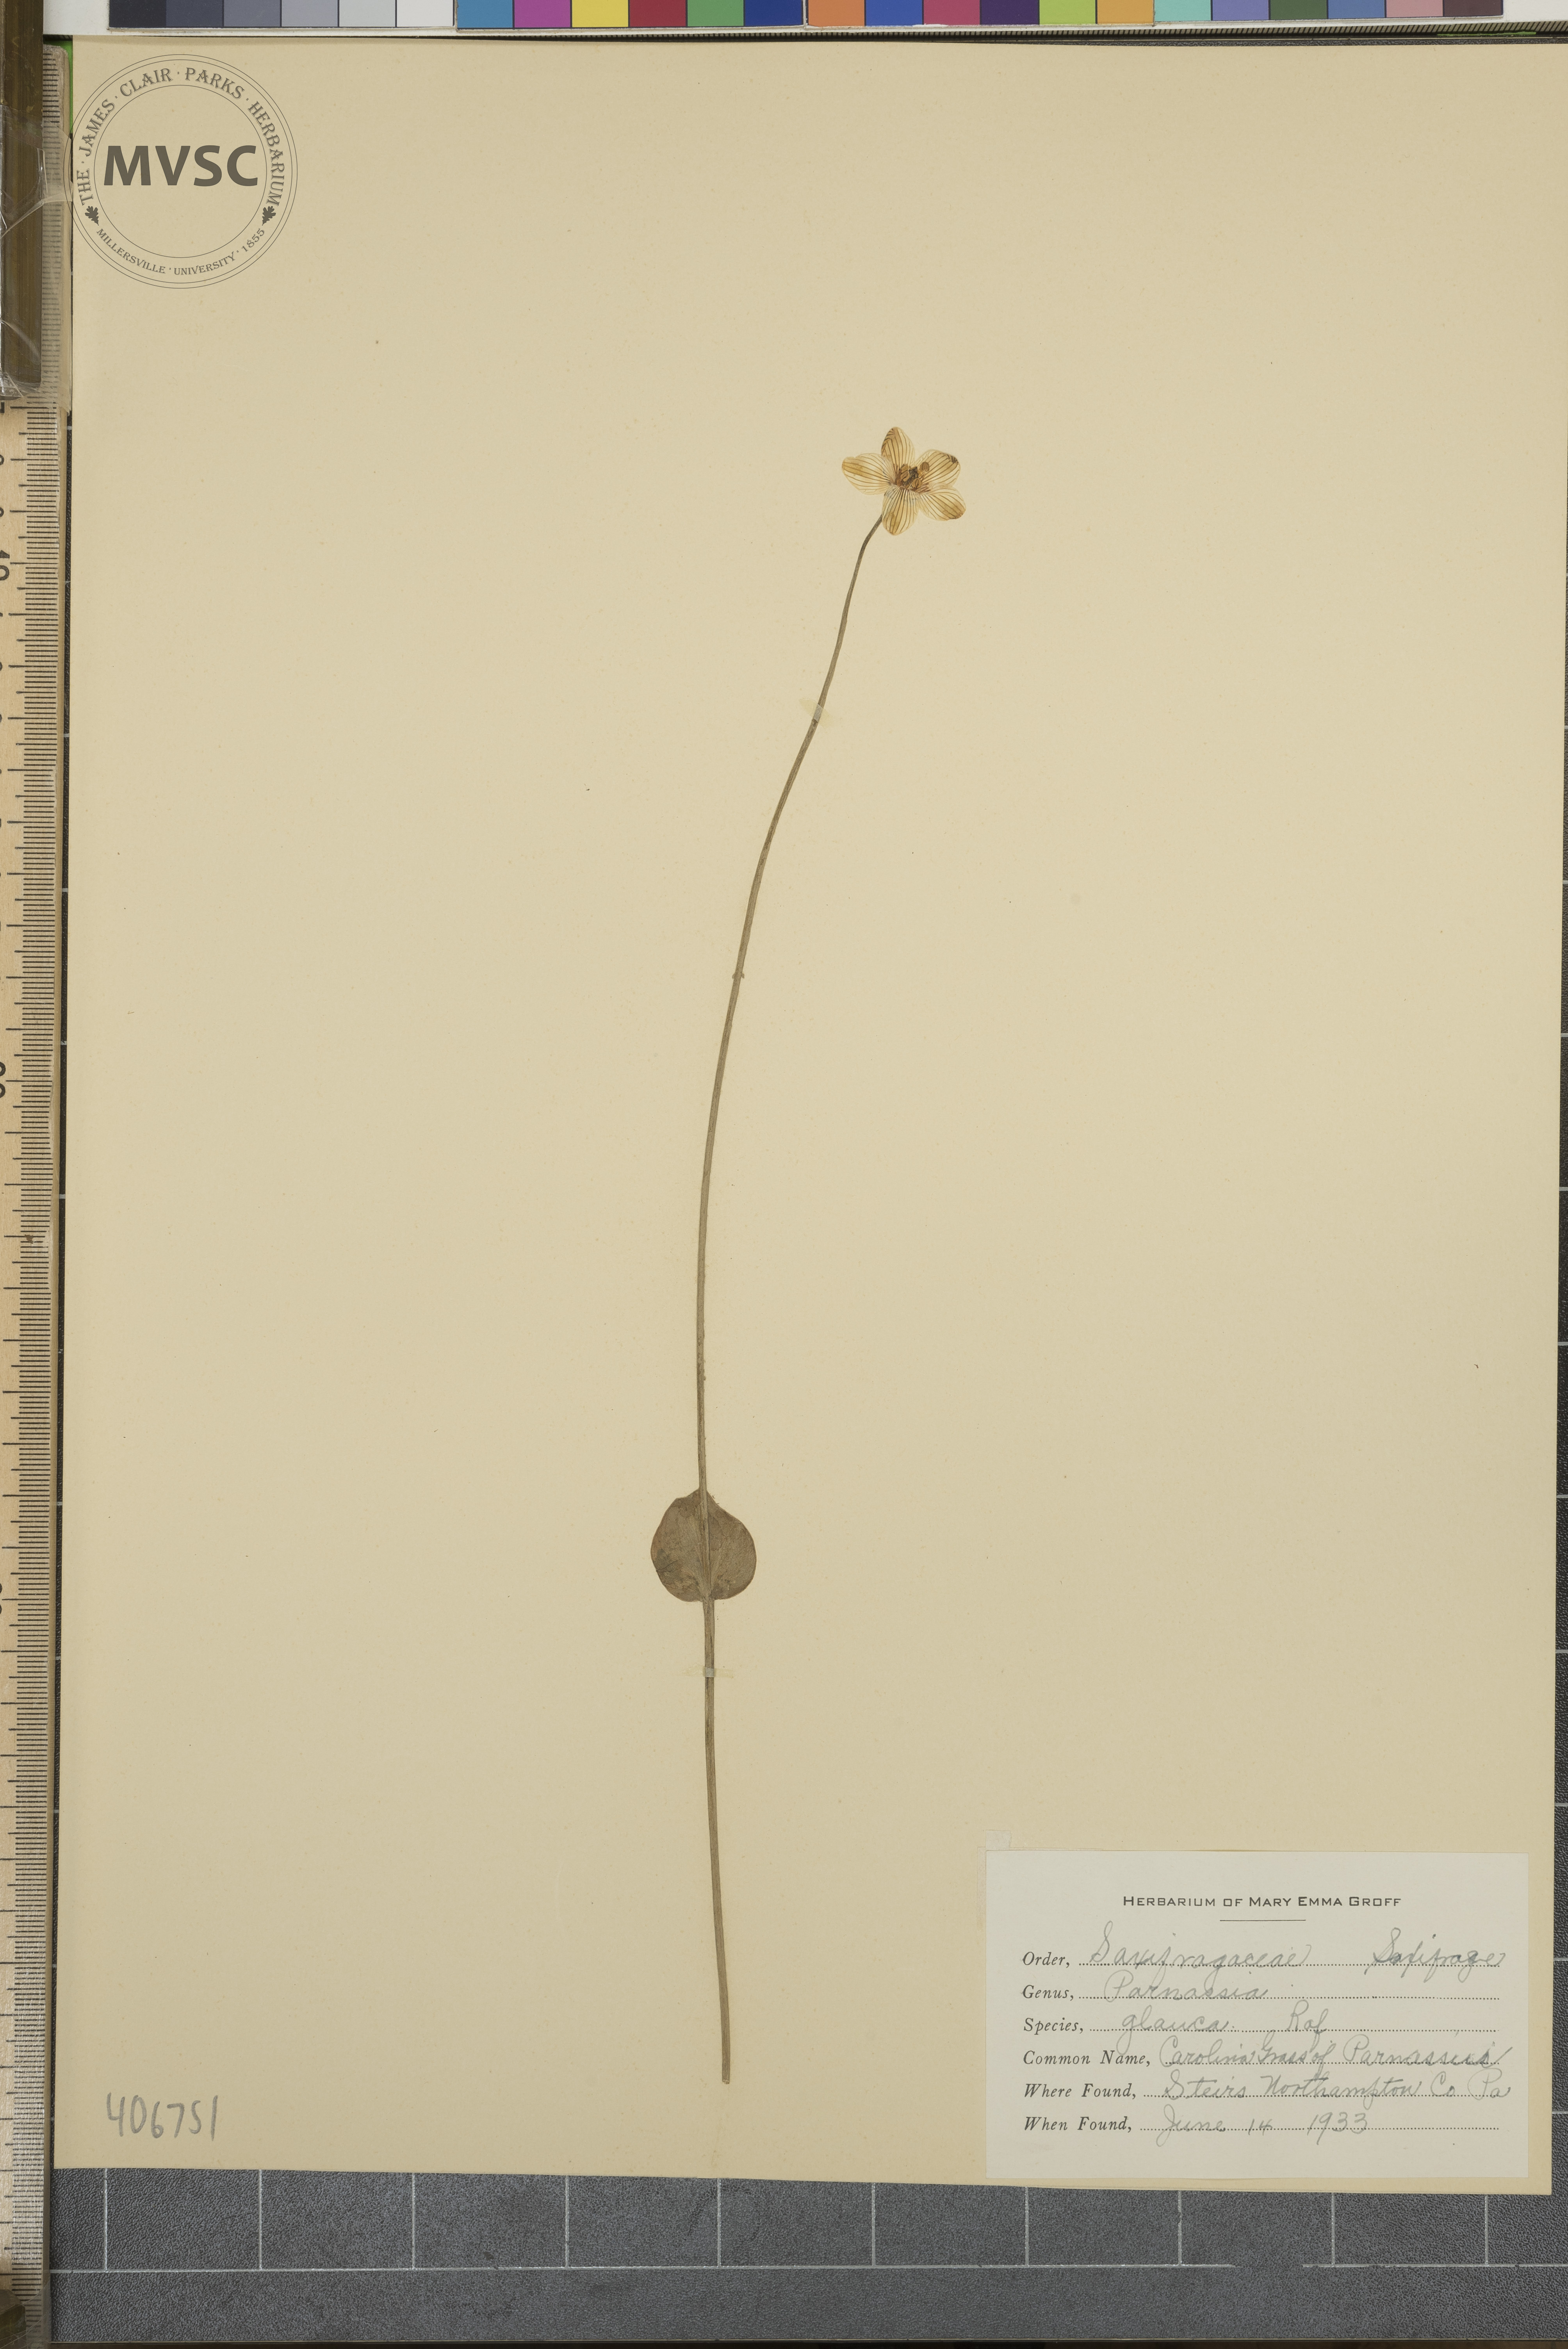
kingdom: Plantae
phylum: Tracheophyta
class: Magnoliopsida
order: Celastrales
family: Parnassiaceae
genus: Parnassia
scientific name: Parnassia glauca
